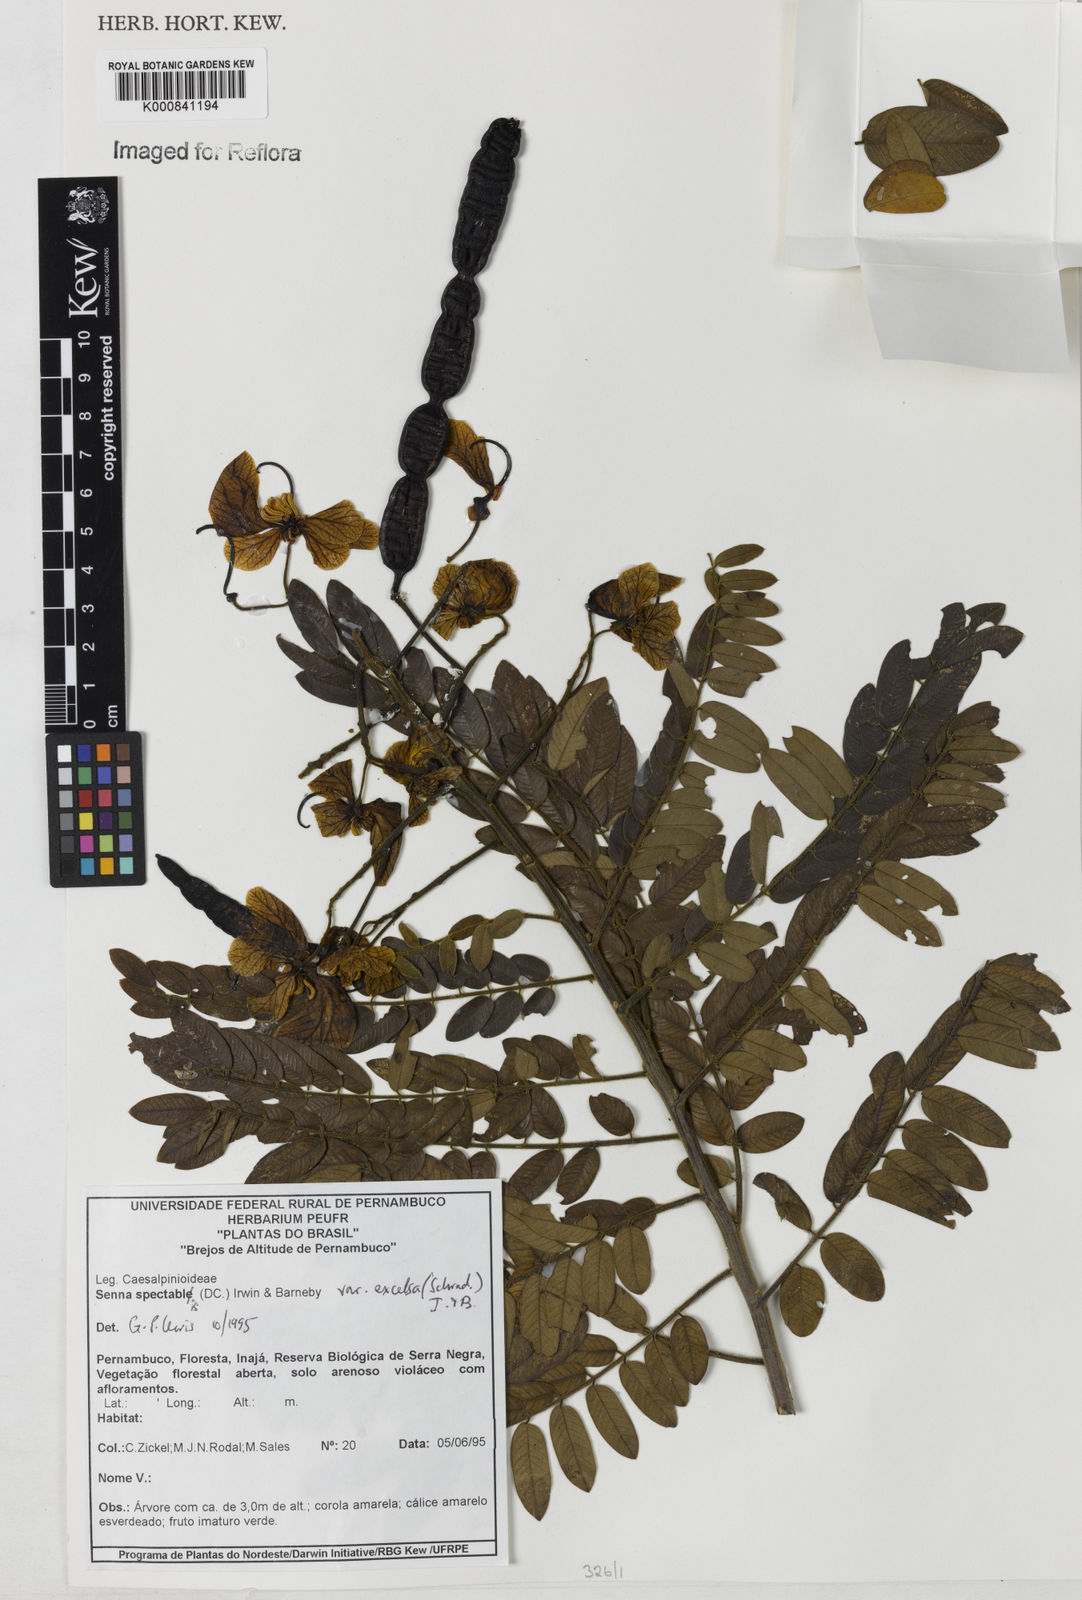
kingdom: Plantae
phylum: Tracheophyta
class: Magnoliopsida
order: Fabales
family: Fabaceae
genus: Senna
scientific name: Senna spectabilis
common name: Casia amarilla
